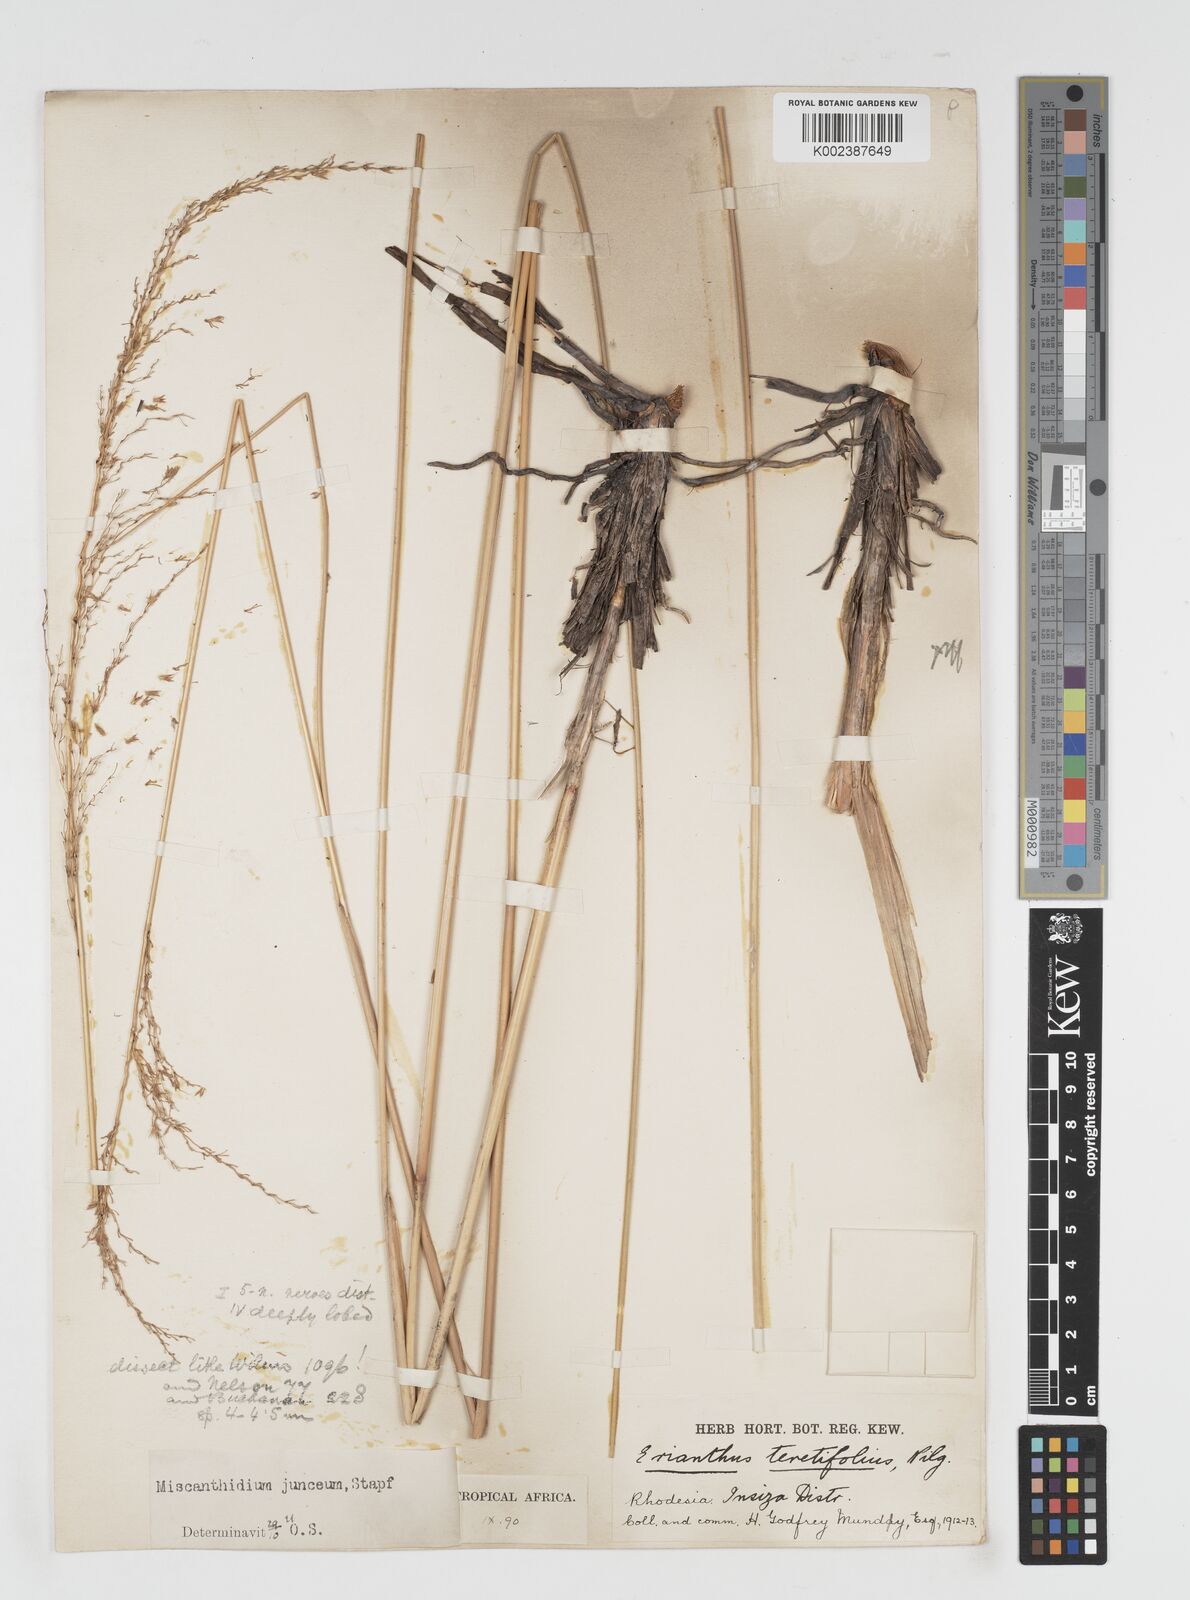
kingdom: Plantae
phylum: Tracheophyta
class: Liliopsida
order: Poales
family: Poaceae
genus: Miscanthidium
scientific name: Miscanthidium junceum
